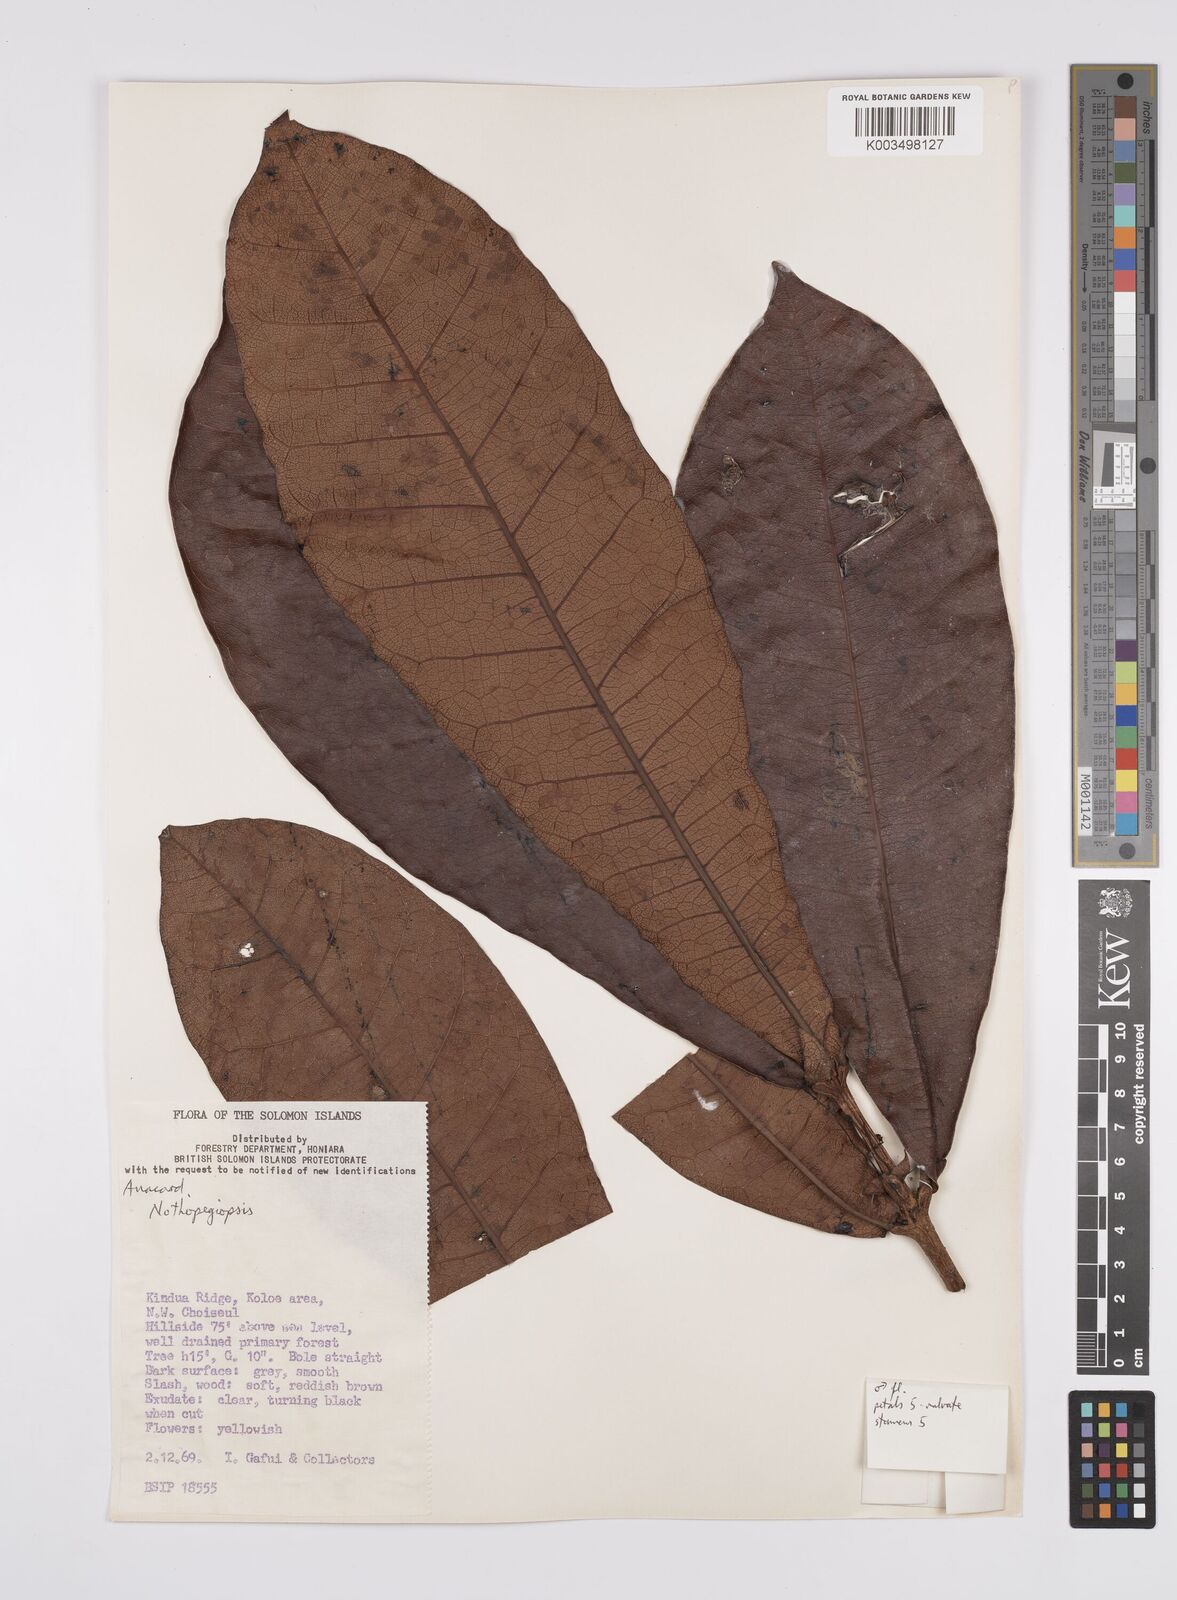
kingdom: Plantae
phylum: Tracheophyta
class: Magnoliopsida
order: Sapindales
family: Anacardiaceae
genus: Semecarpus
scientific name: Semecarpus
